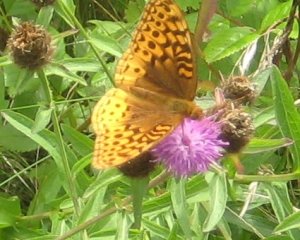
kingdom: Animalia
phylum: Arthropoda
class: Insecta
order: Lepidoptera
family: Nymphalidae
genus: Speyeria
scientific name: Speyeria cybele
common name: Great Spangled Fritillary
